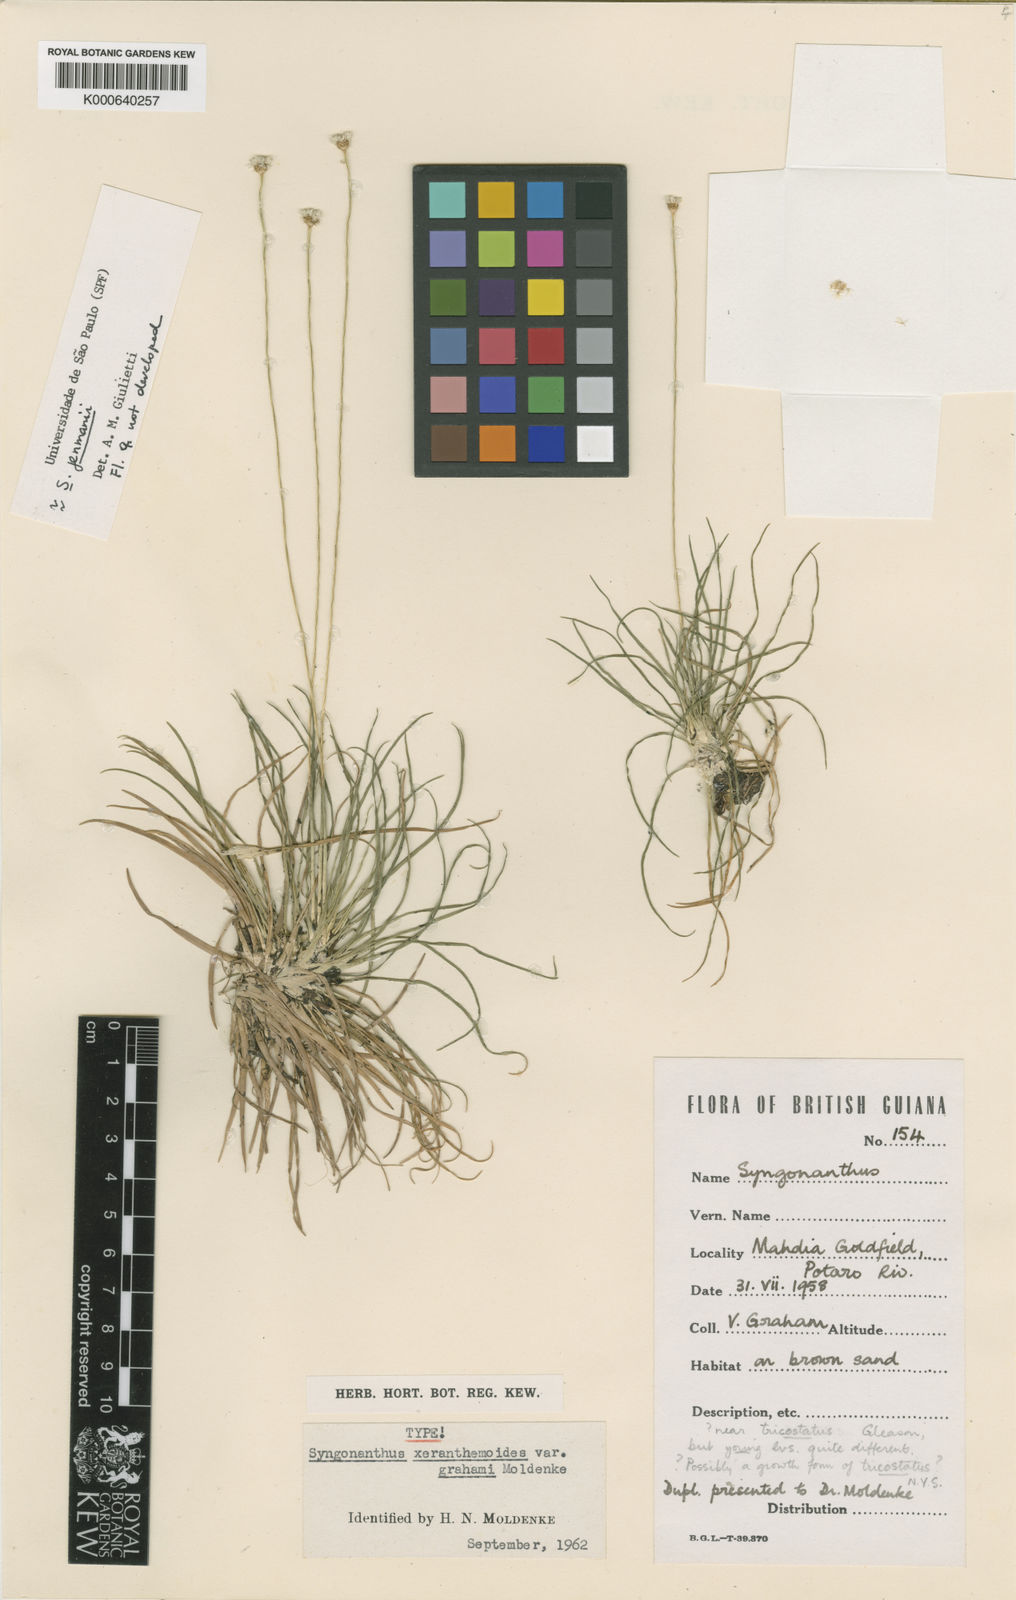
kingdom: Plantae
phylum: Tracheophyta
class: Liliopsida
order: Poales
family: Eriocaulaceae
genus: Comanthera
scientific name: Comanthera jenmanii
